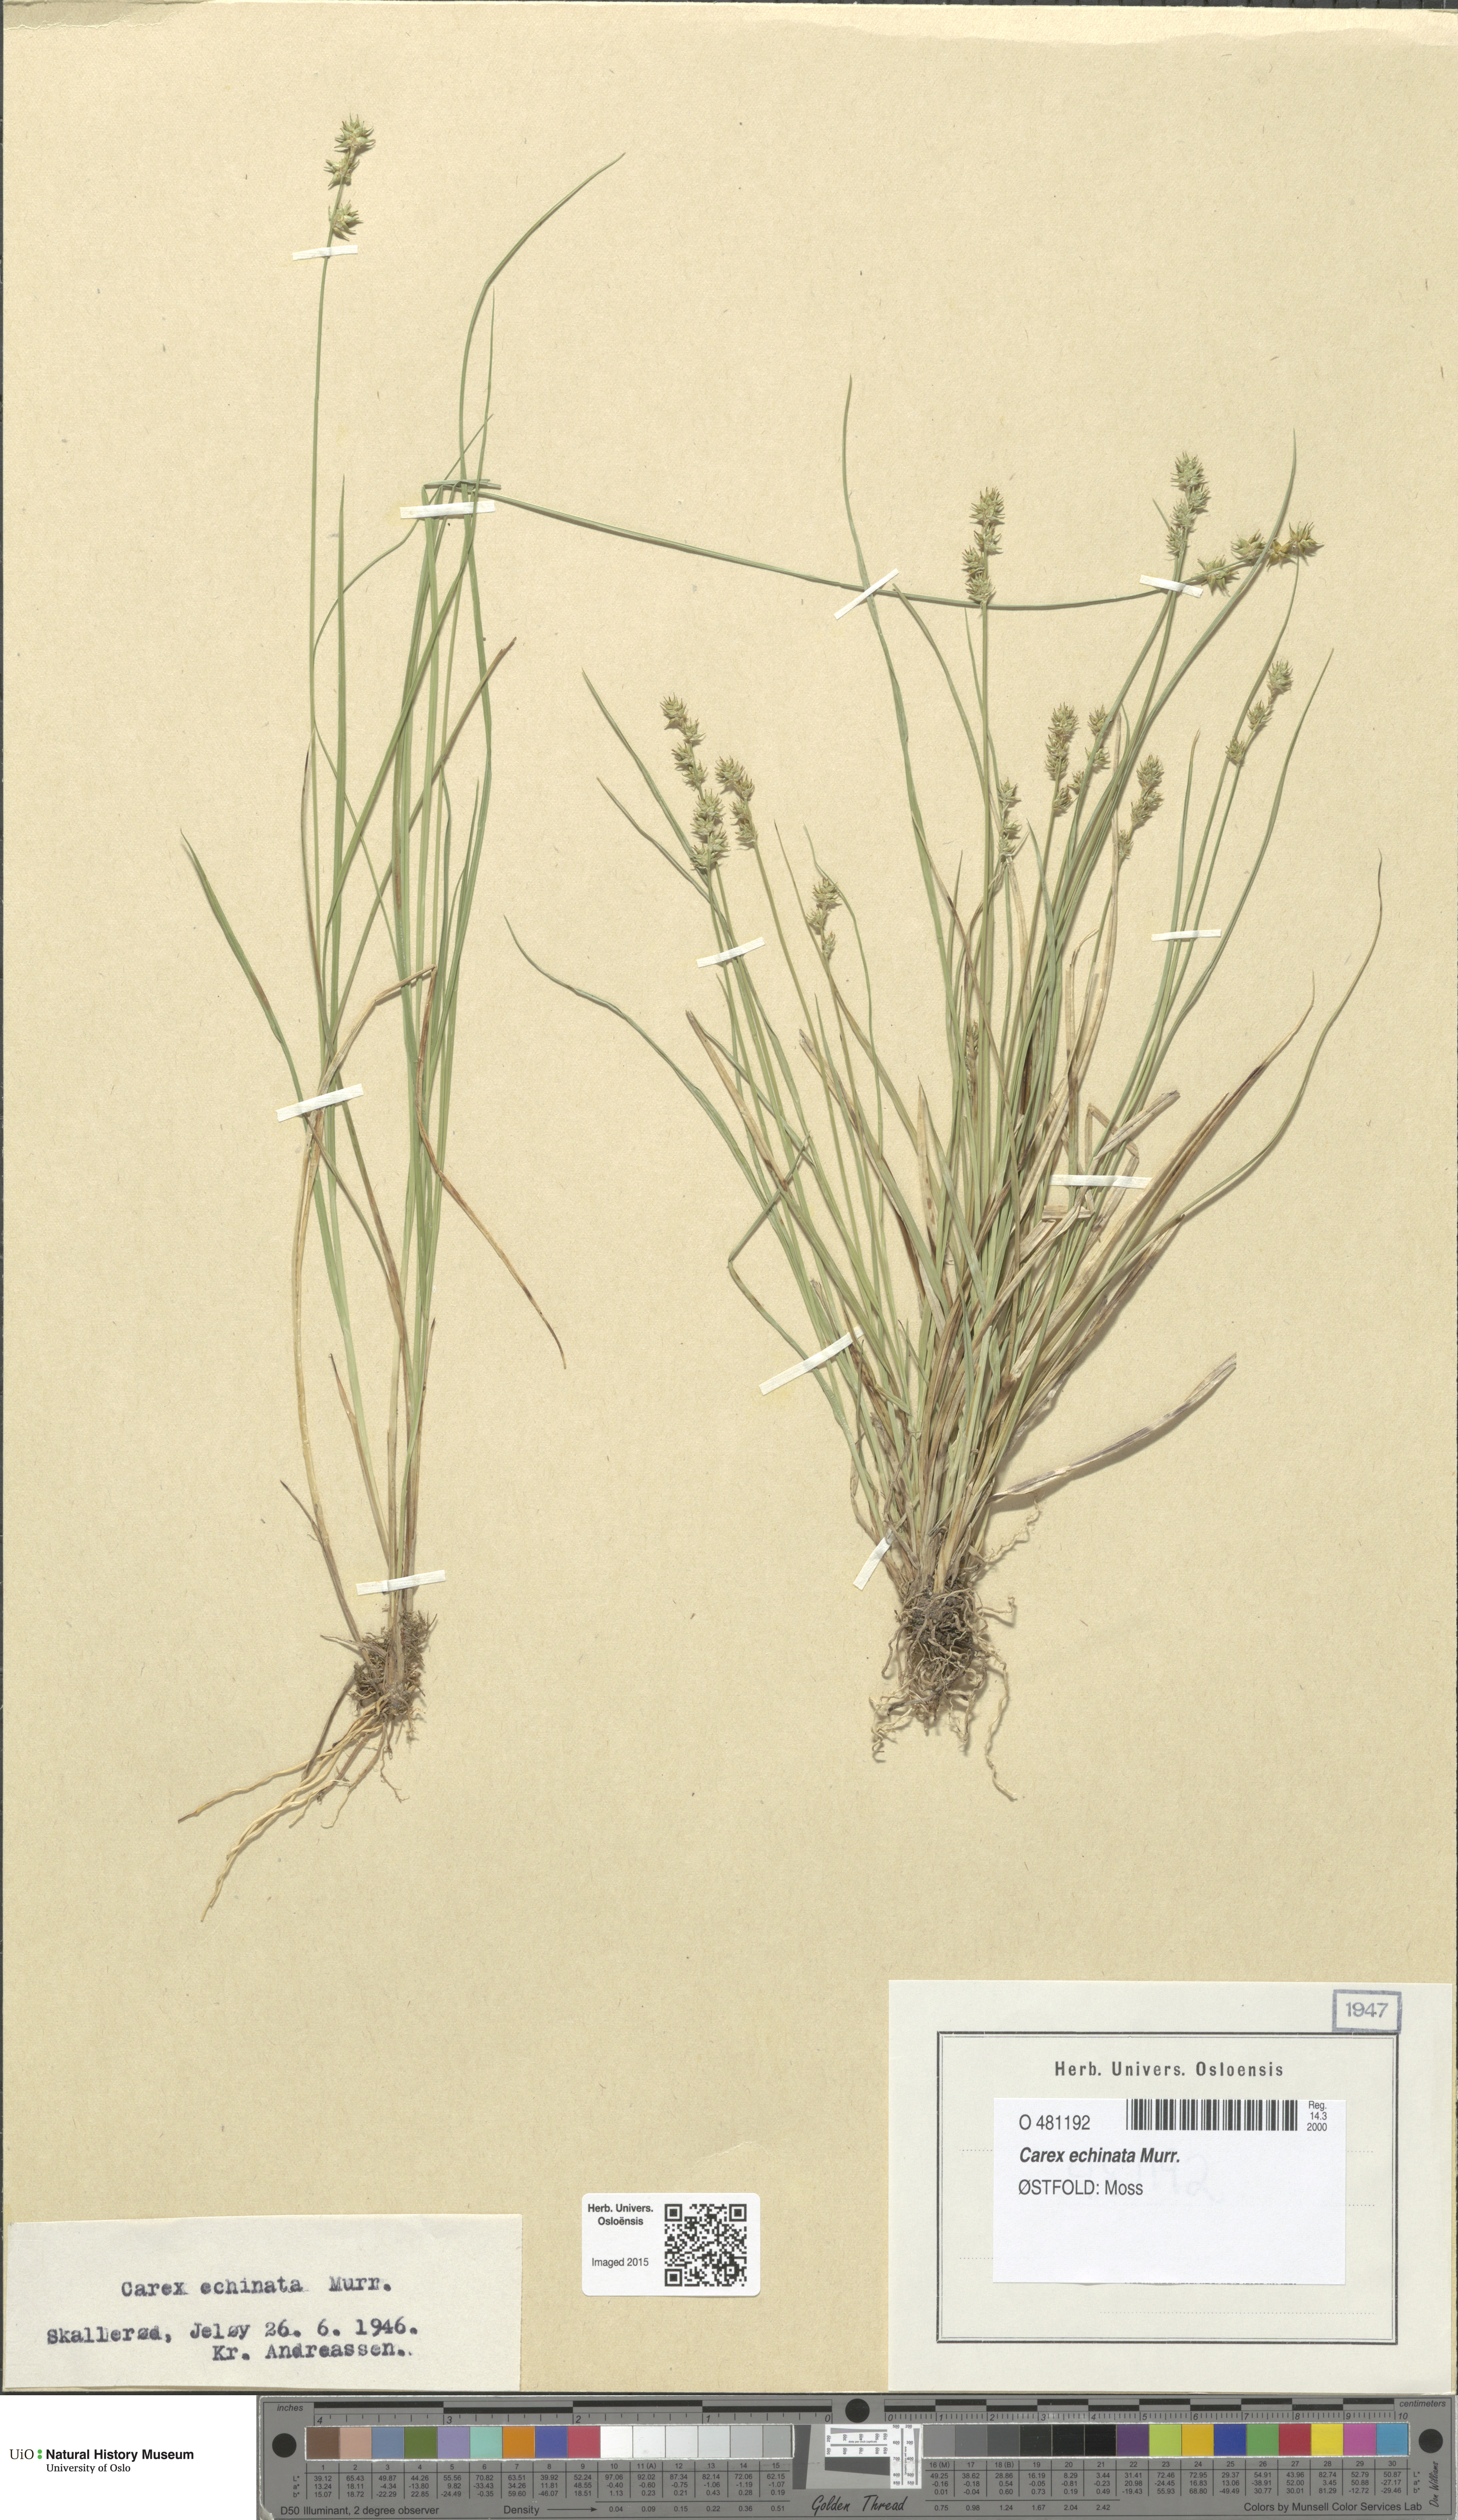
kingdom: Plantae
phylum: Tracheophyta
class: Liliopsida
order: Poales
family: Cyperaceae
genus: Carex
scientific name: Carex echinata
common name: Star sedge
